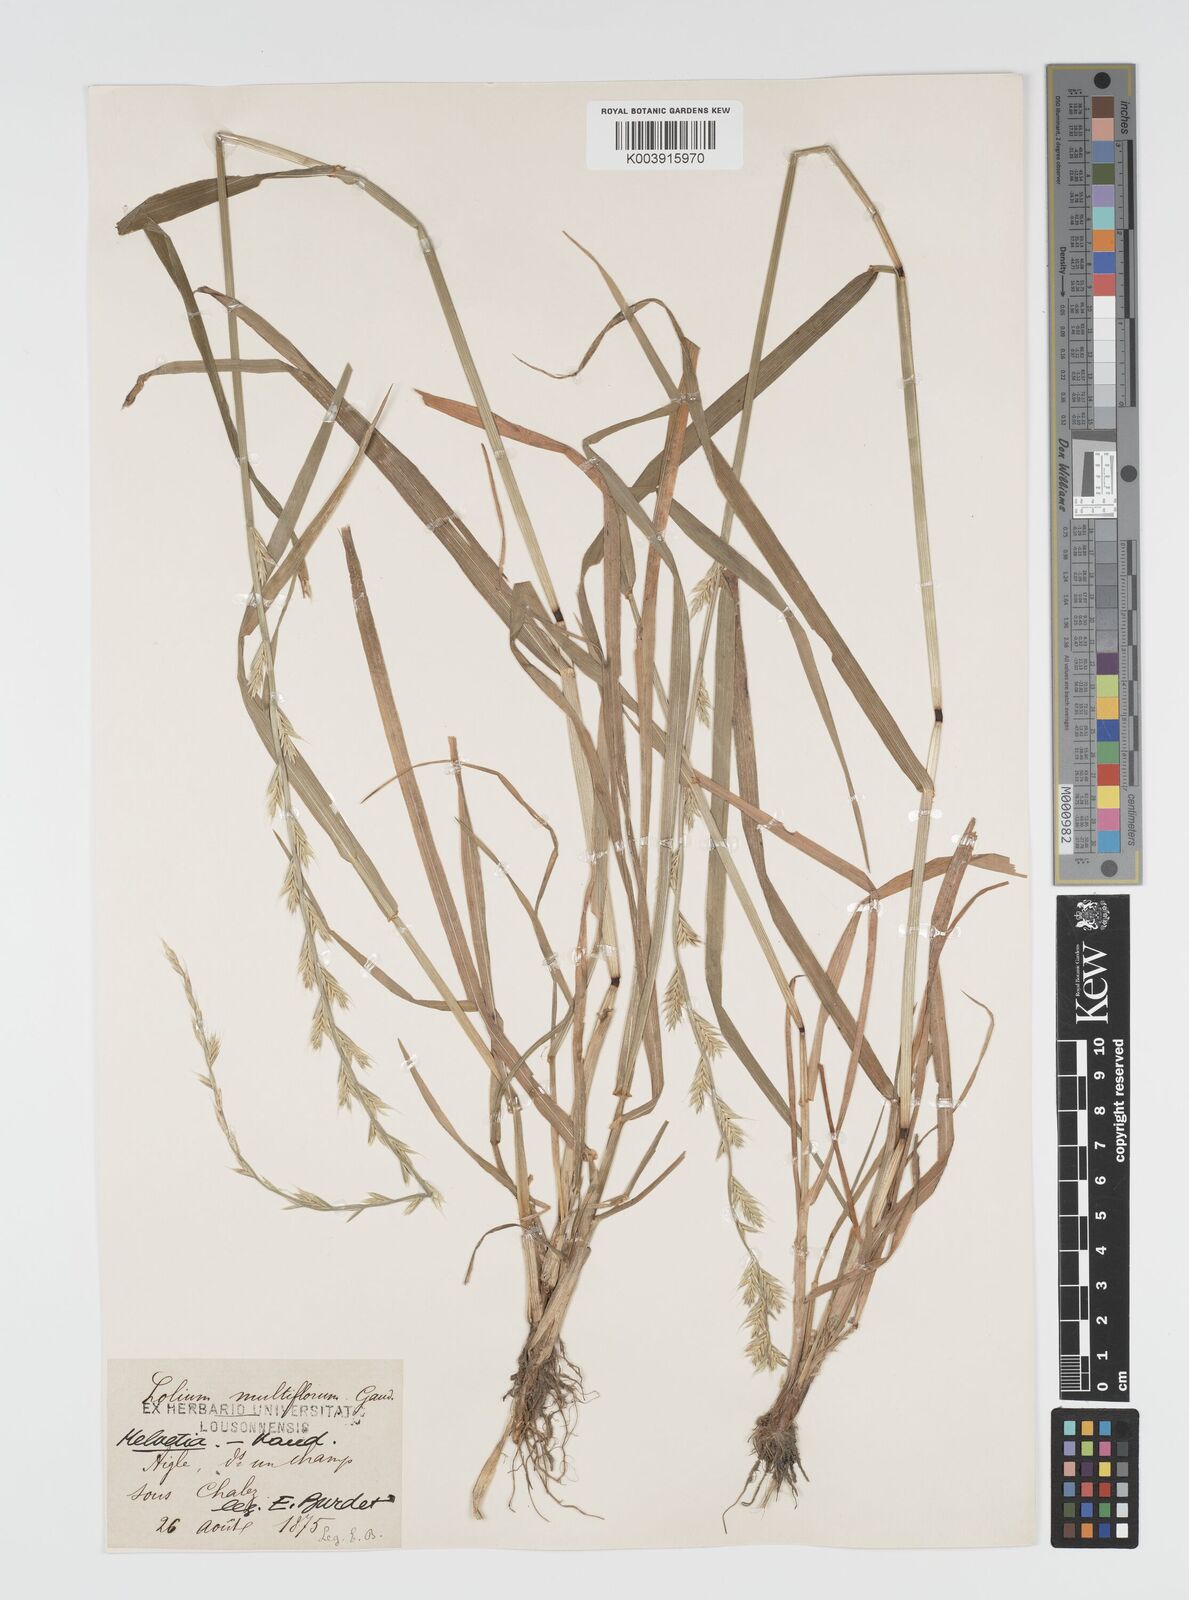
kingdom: Plantae
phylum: Tracheophyta
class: Liliopsida
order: Poales
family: Poaceae
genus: Lolium
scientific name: Lolium multiflorum
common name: Annual ryegrass
